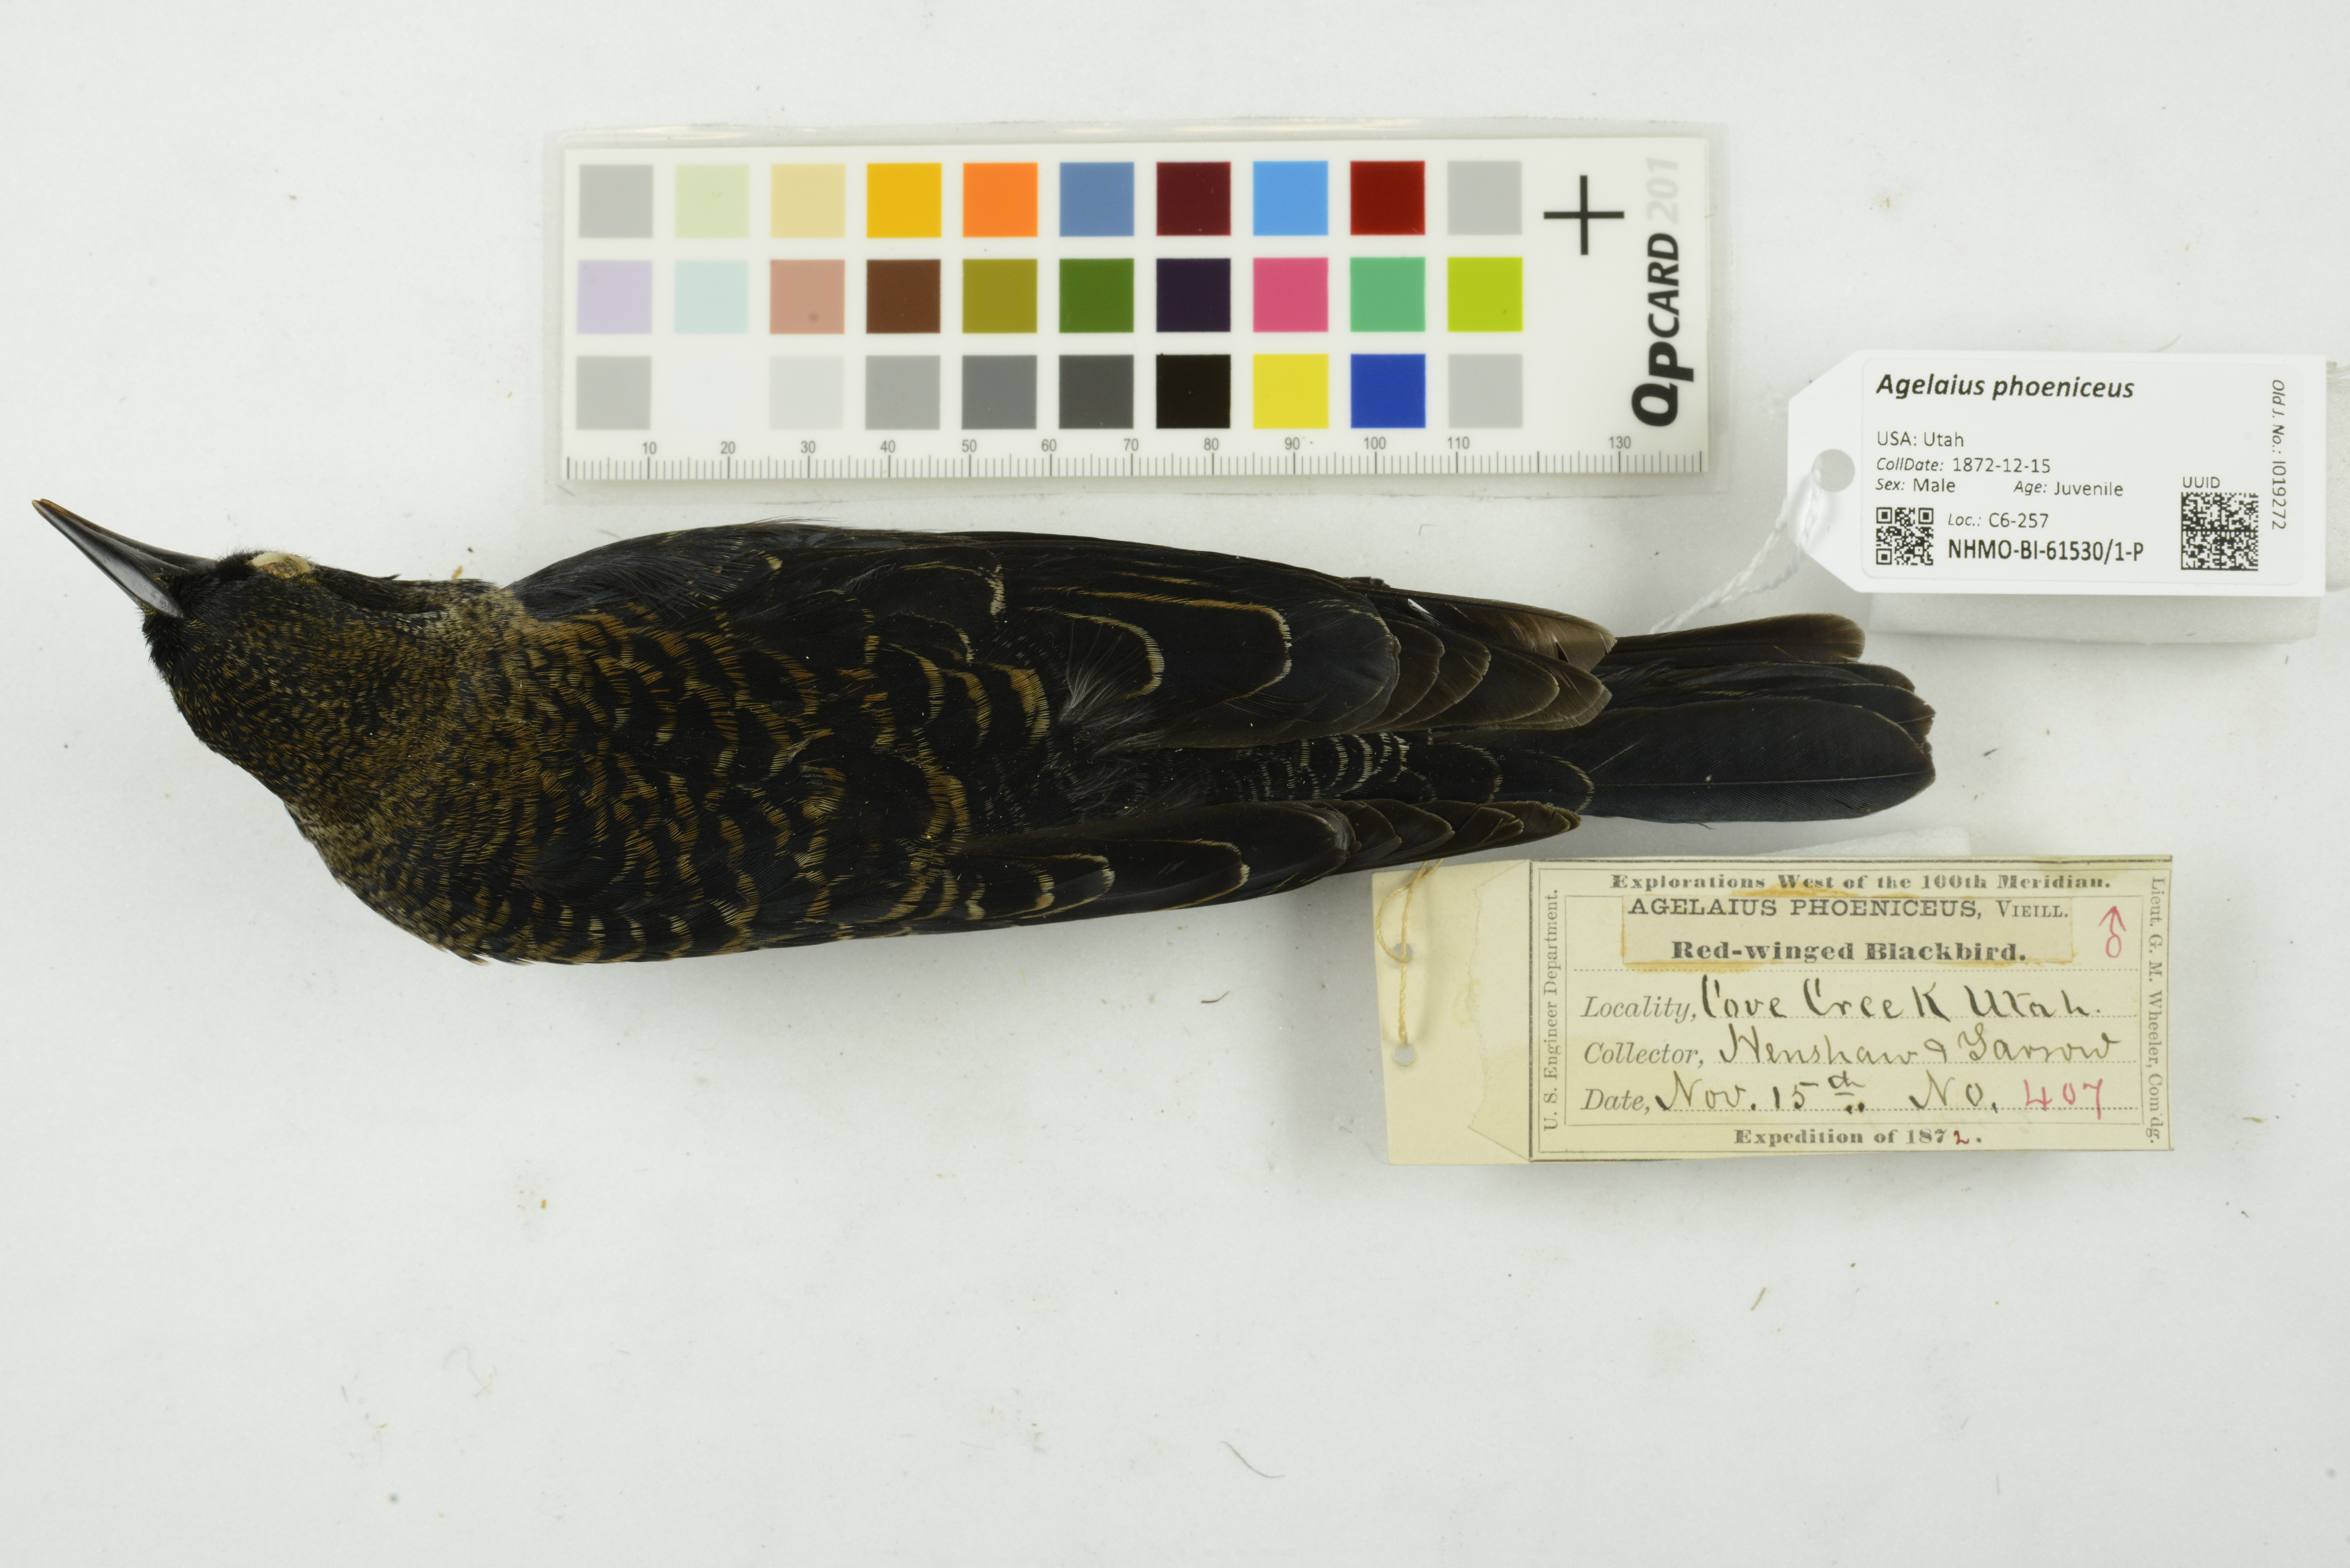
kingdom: Animalia
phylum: Chordata
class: Aves
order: Passeriformes
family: Icteridae
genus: Agelaius
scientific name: Agelaius phoeniceus
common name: Red-winged blackbird
